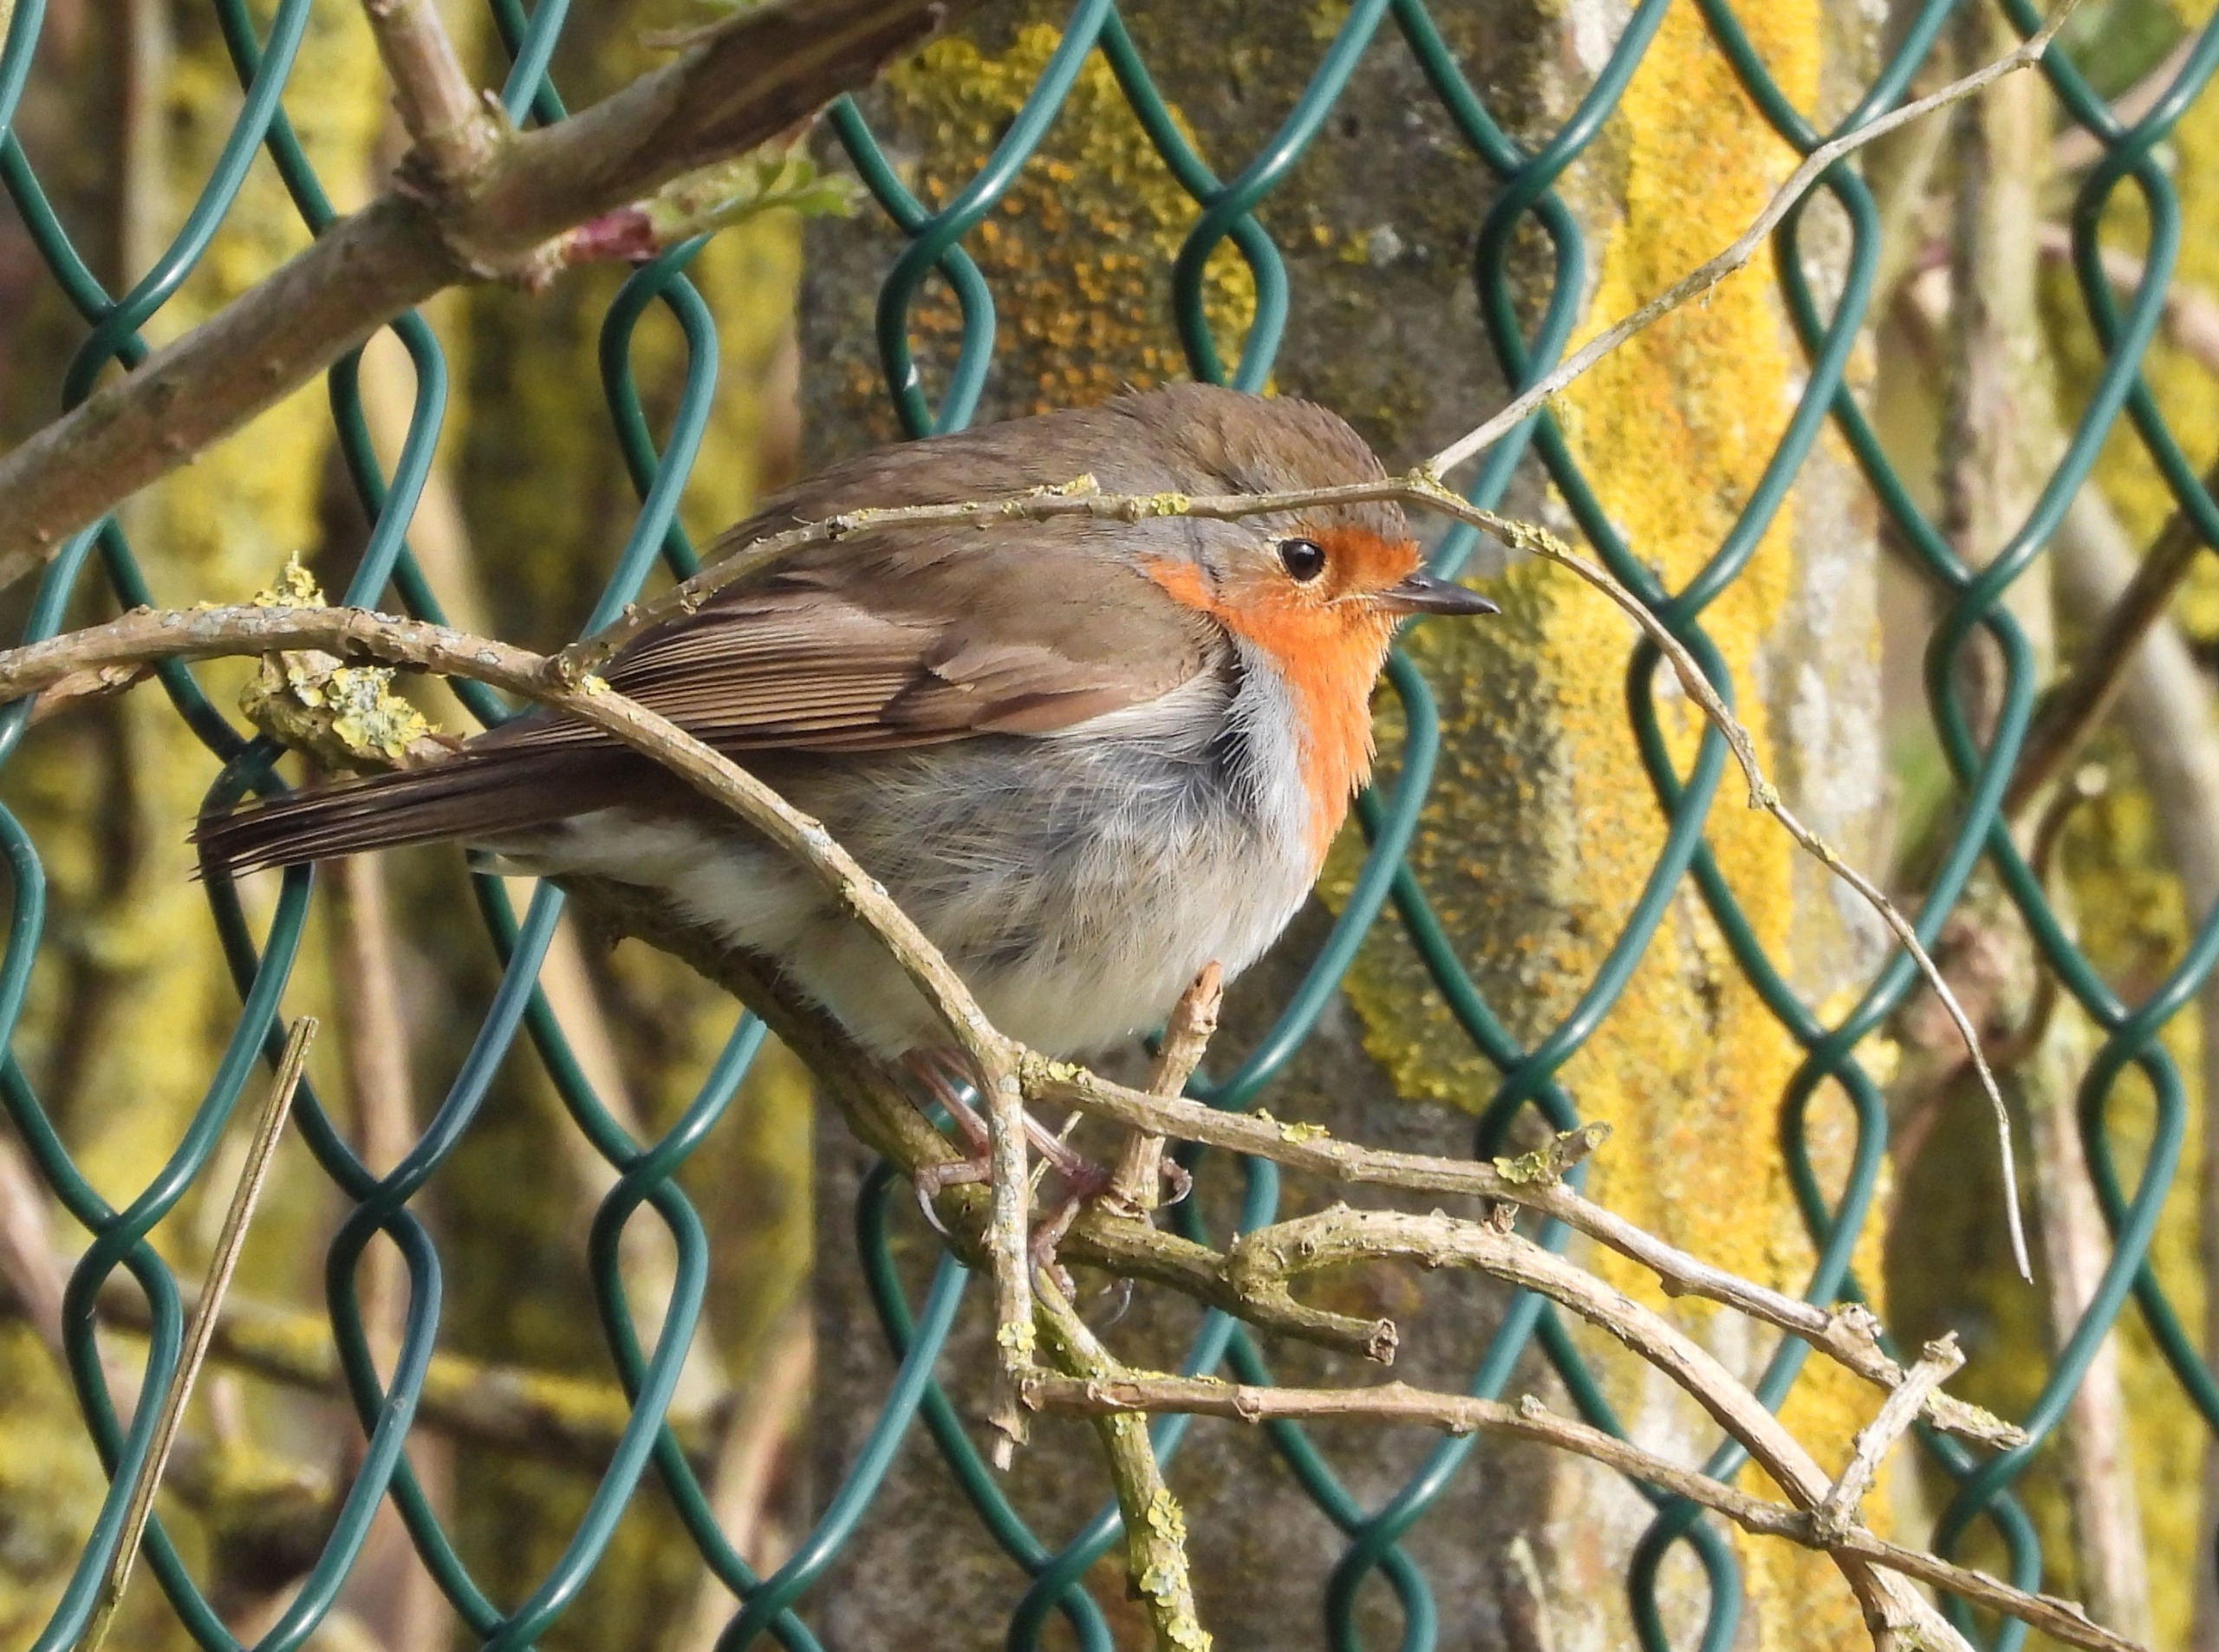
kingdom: Animalia
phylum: Chordata
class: Aves
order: Passeriformes
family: Muscicapidae
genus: Erithacus
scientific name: Erithacus rubecula
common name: Rødhals/rødkælk
